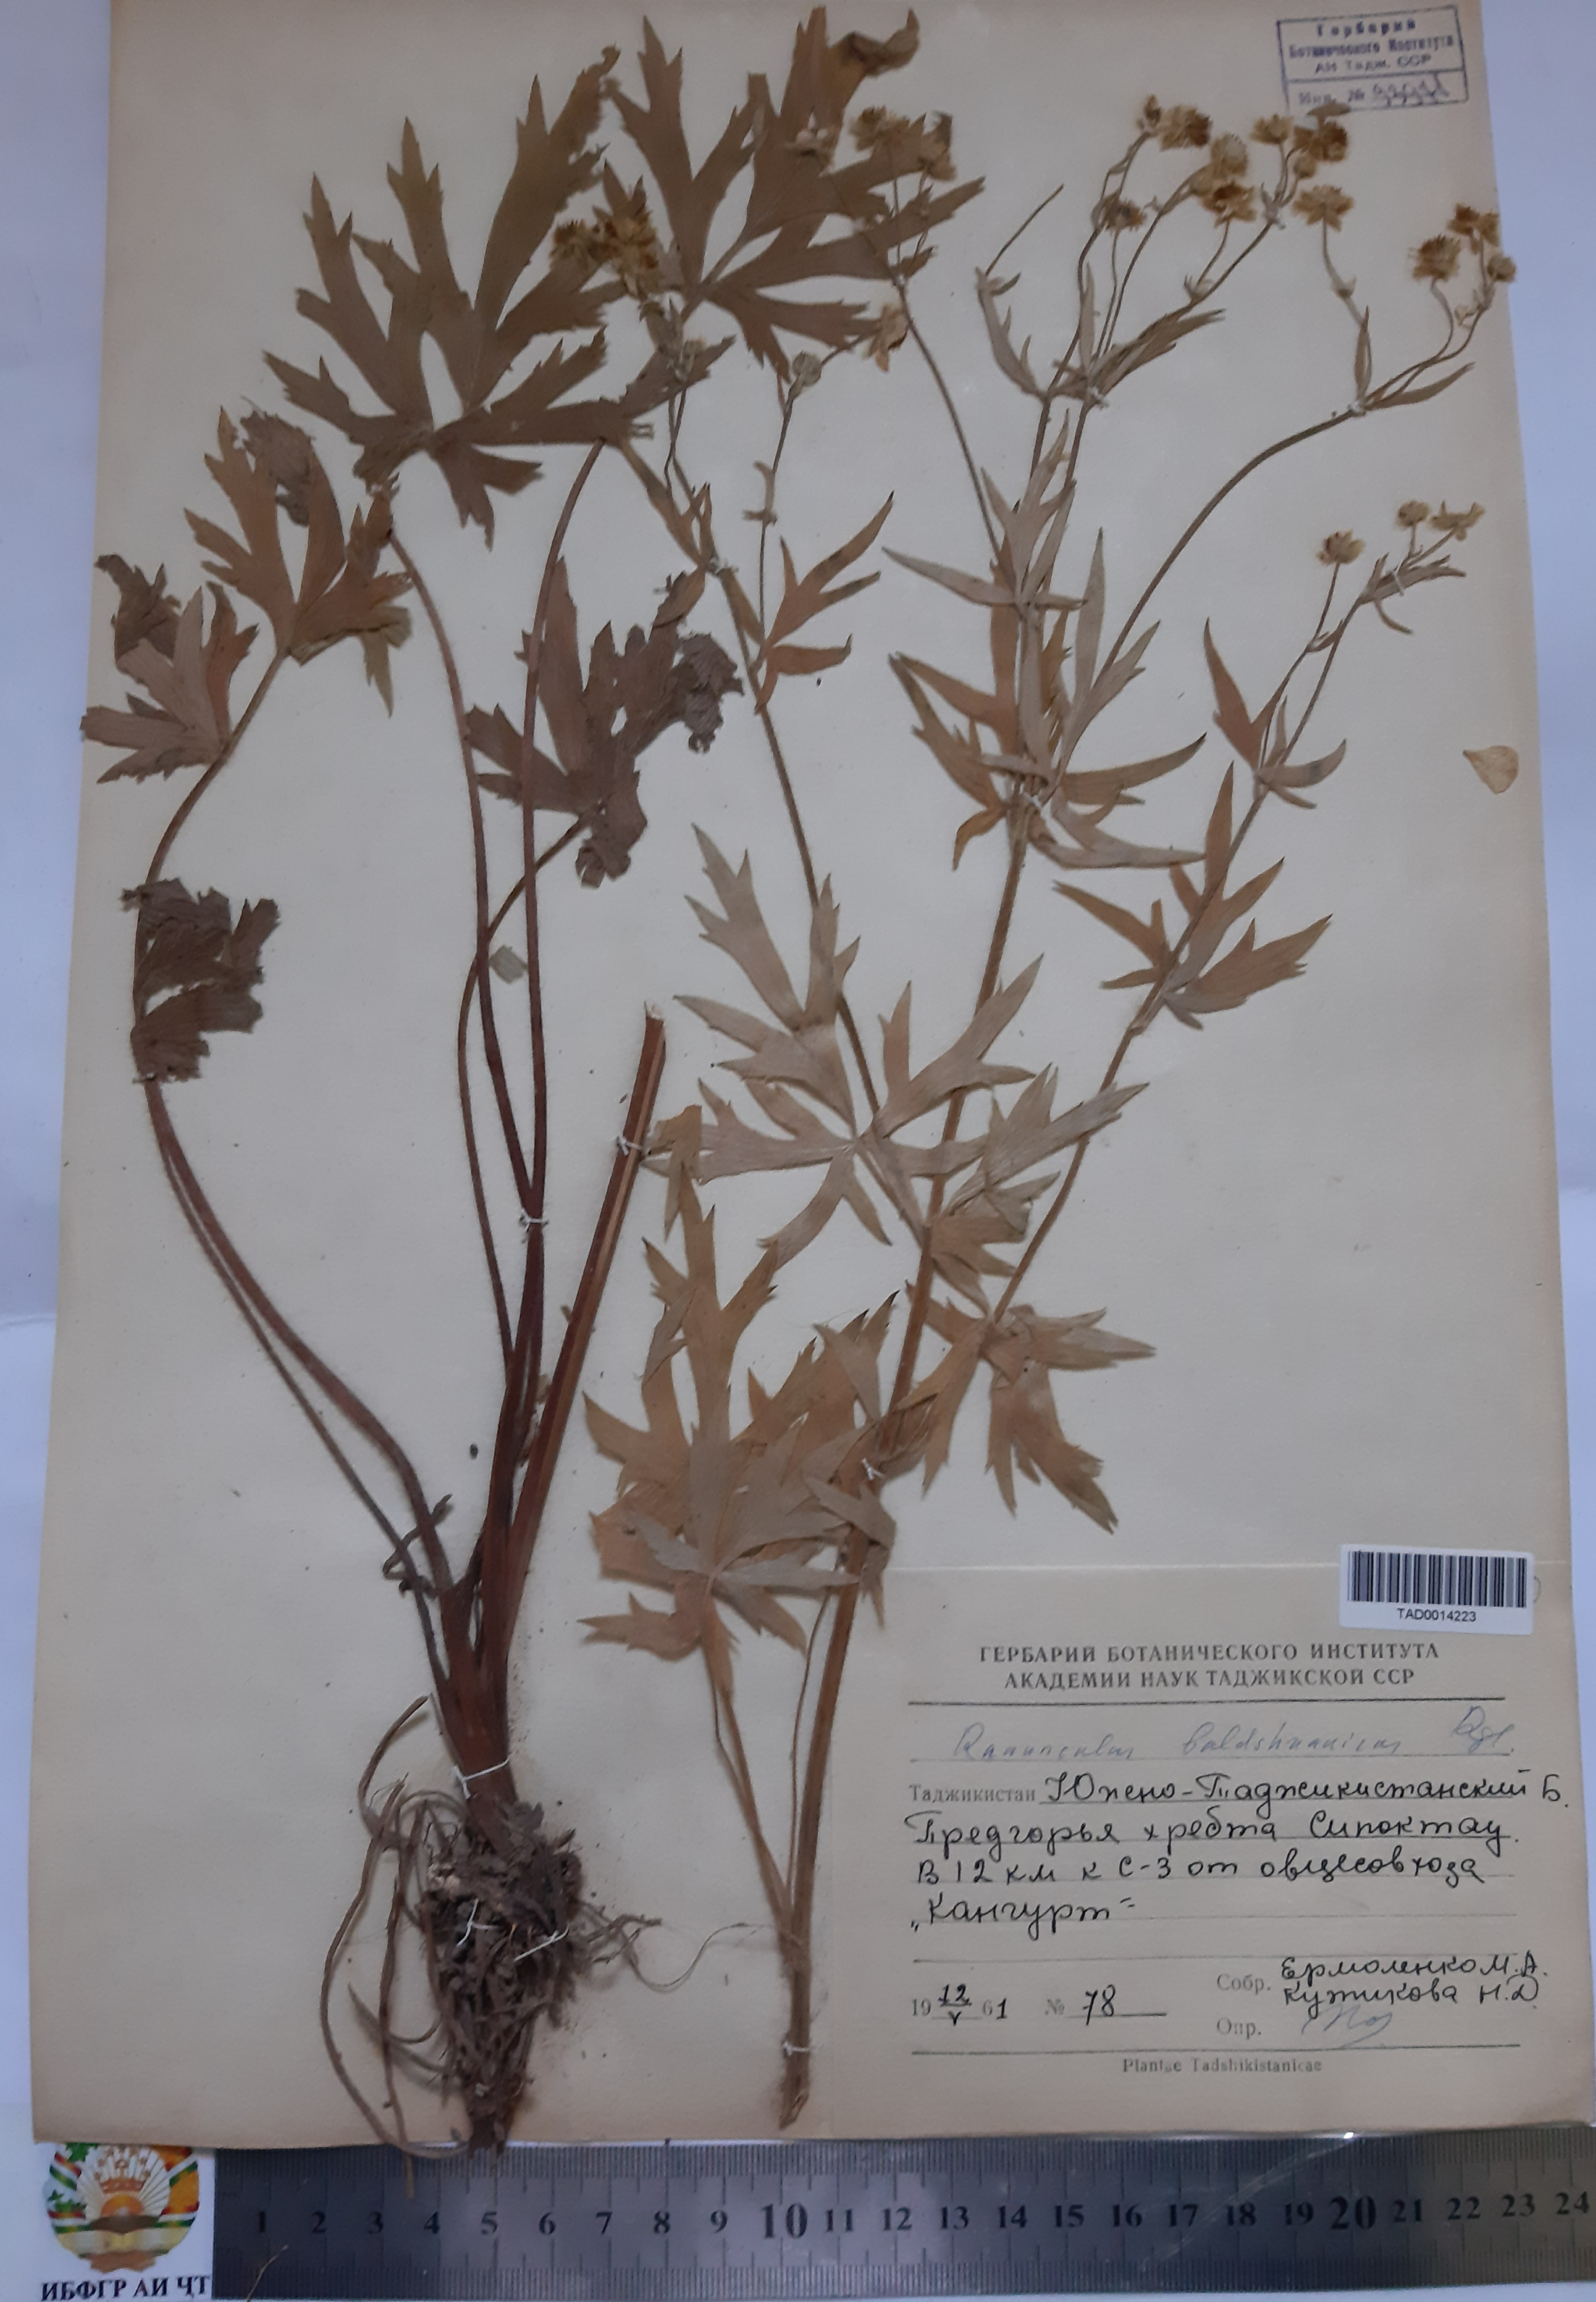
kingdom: Plantae
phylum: Tracheophyta
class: Magnoliopsida
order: Ranunculales
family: Ranunculaceae
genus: Ranunculus
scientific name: Ranunculus baldshuanicus
